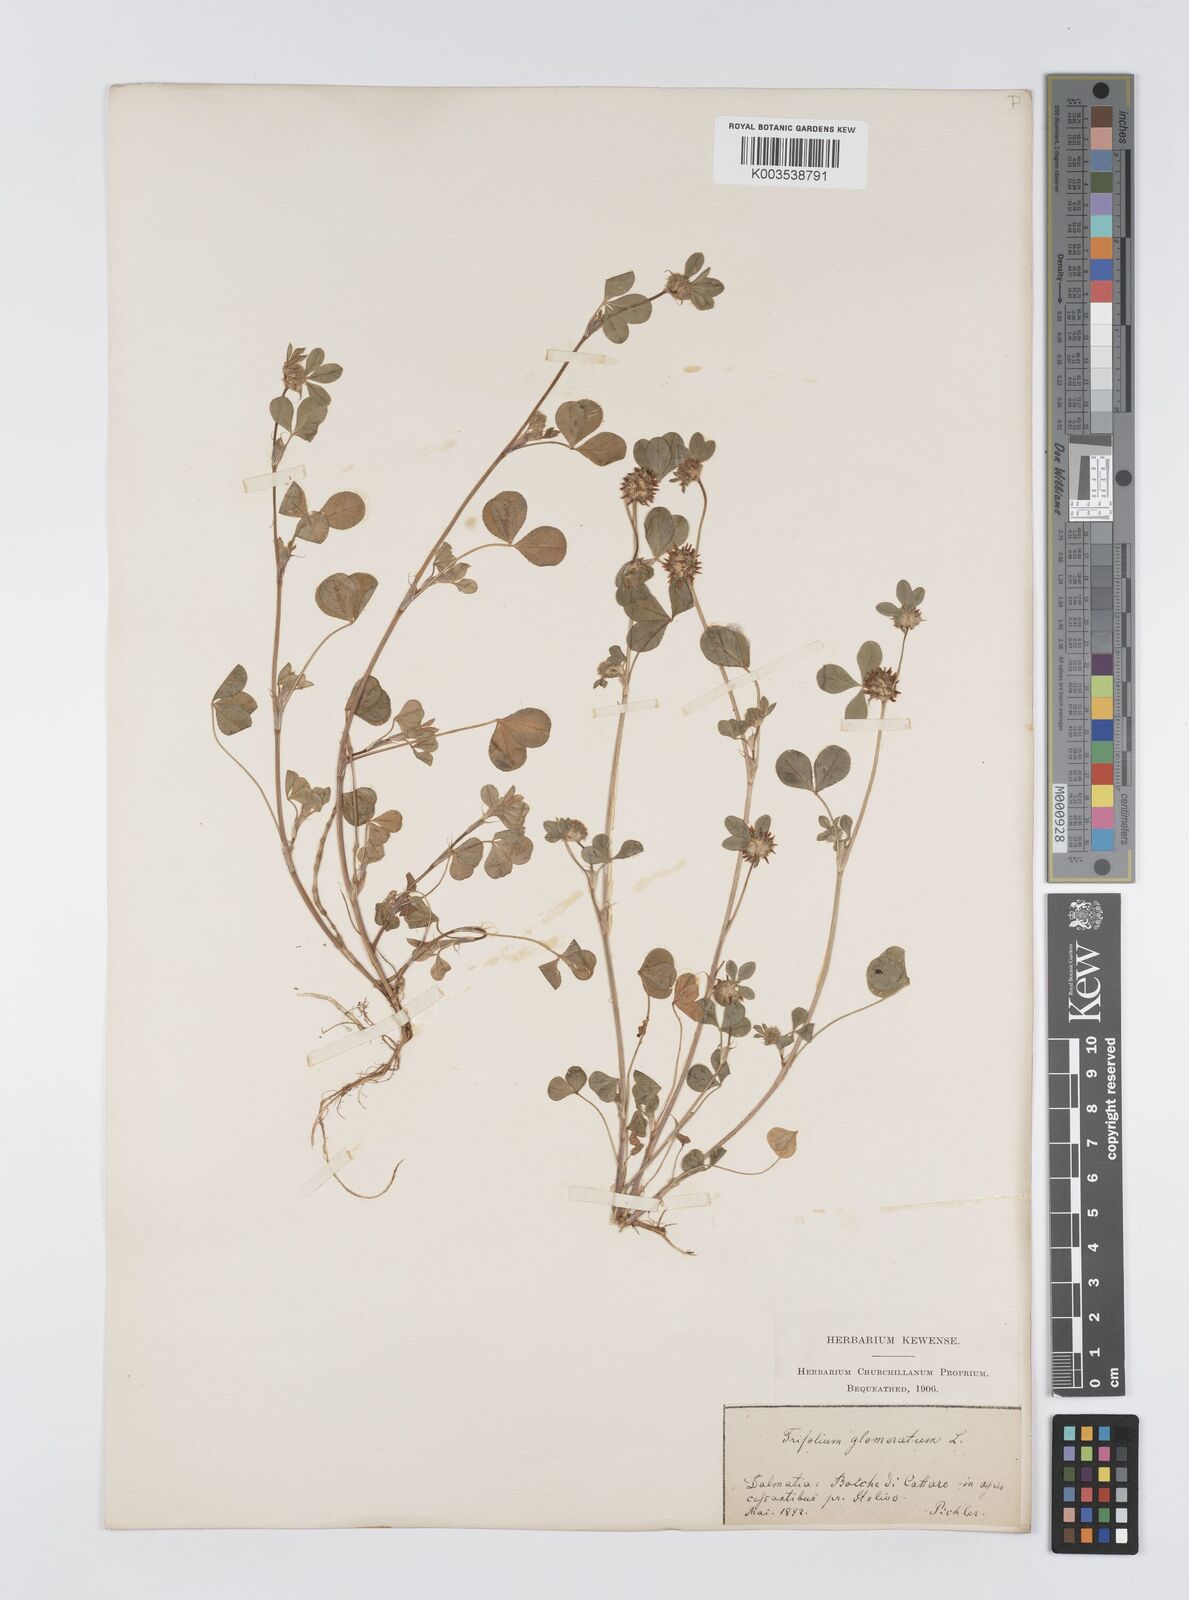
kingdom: Plantae
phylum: Tracheophyta
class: Magnoliopsida
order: Fabales
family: Fabaceae
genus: Trifolium
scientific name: Trifolium glomeratum
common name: Clustered clover
